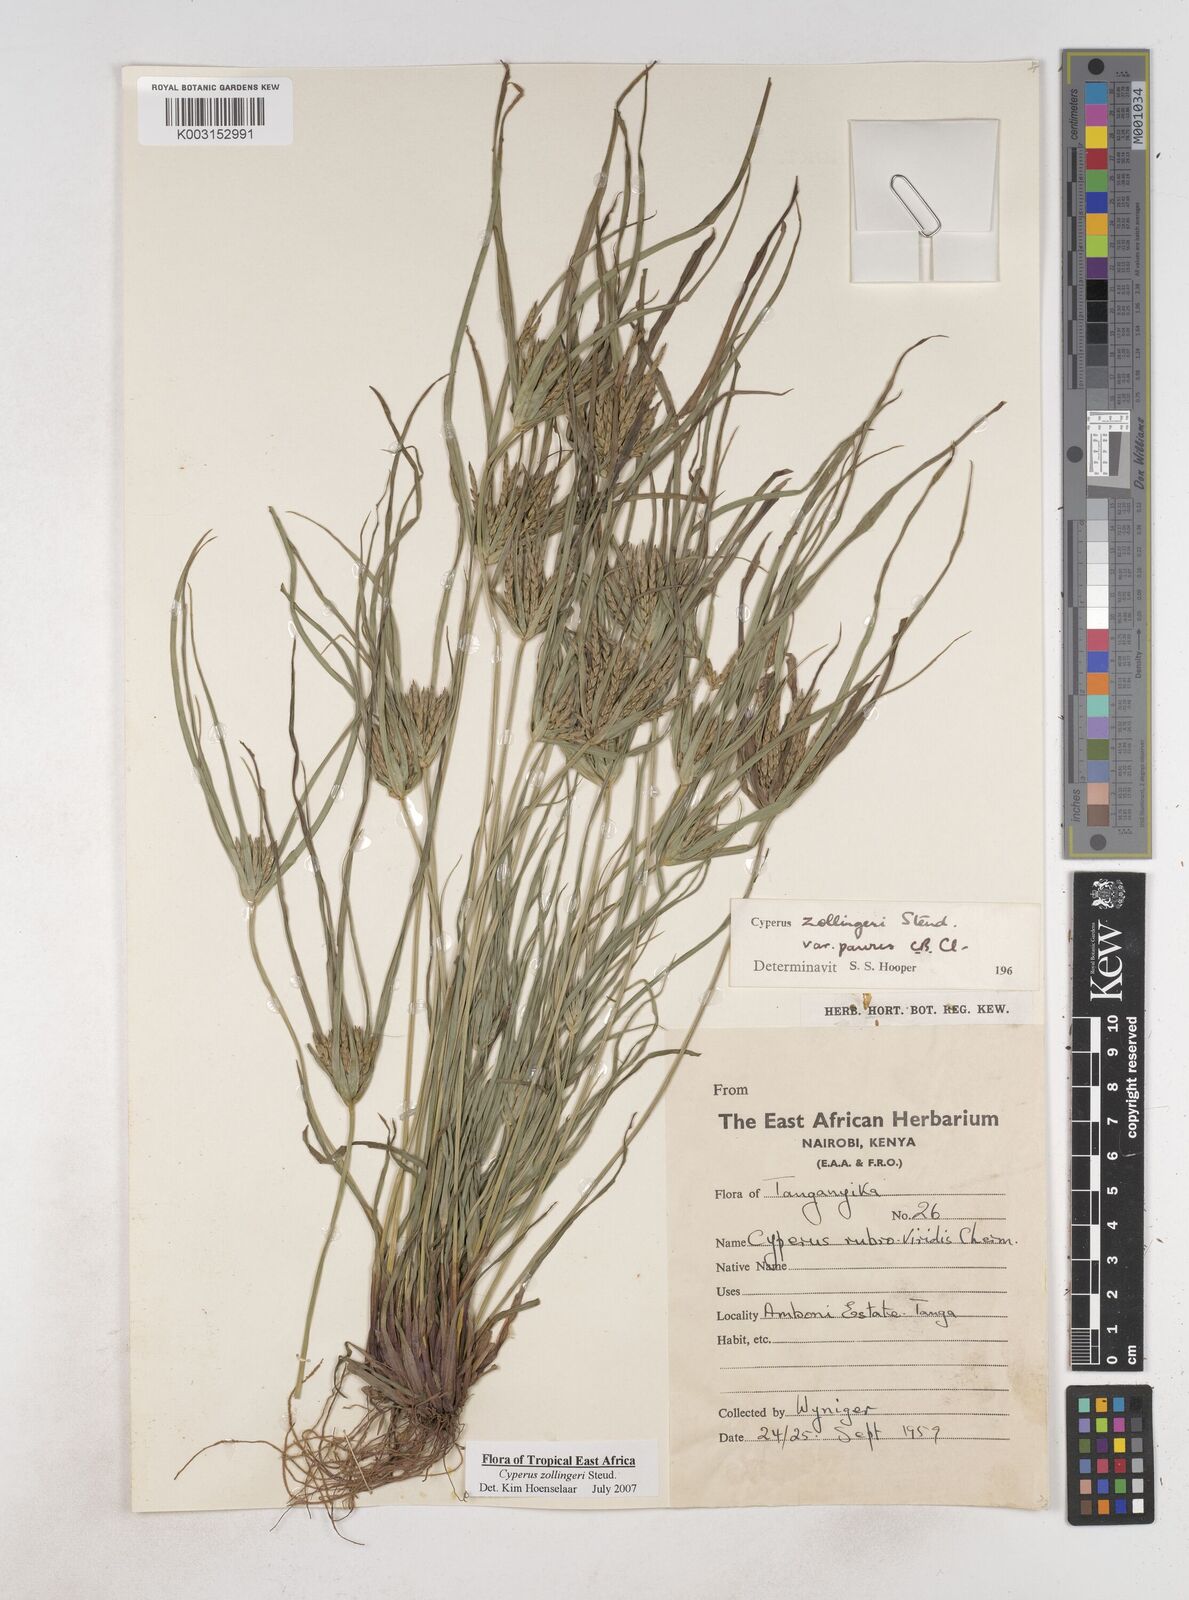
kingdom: Plantae
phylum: Tracheophyta
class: Liliopsida
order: Poales
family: Cyperaceae
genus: Cyperus
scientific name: Cyperus zollingeri
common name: Roadside flatsedge
